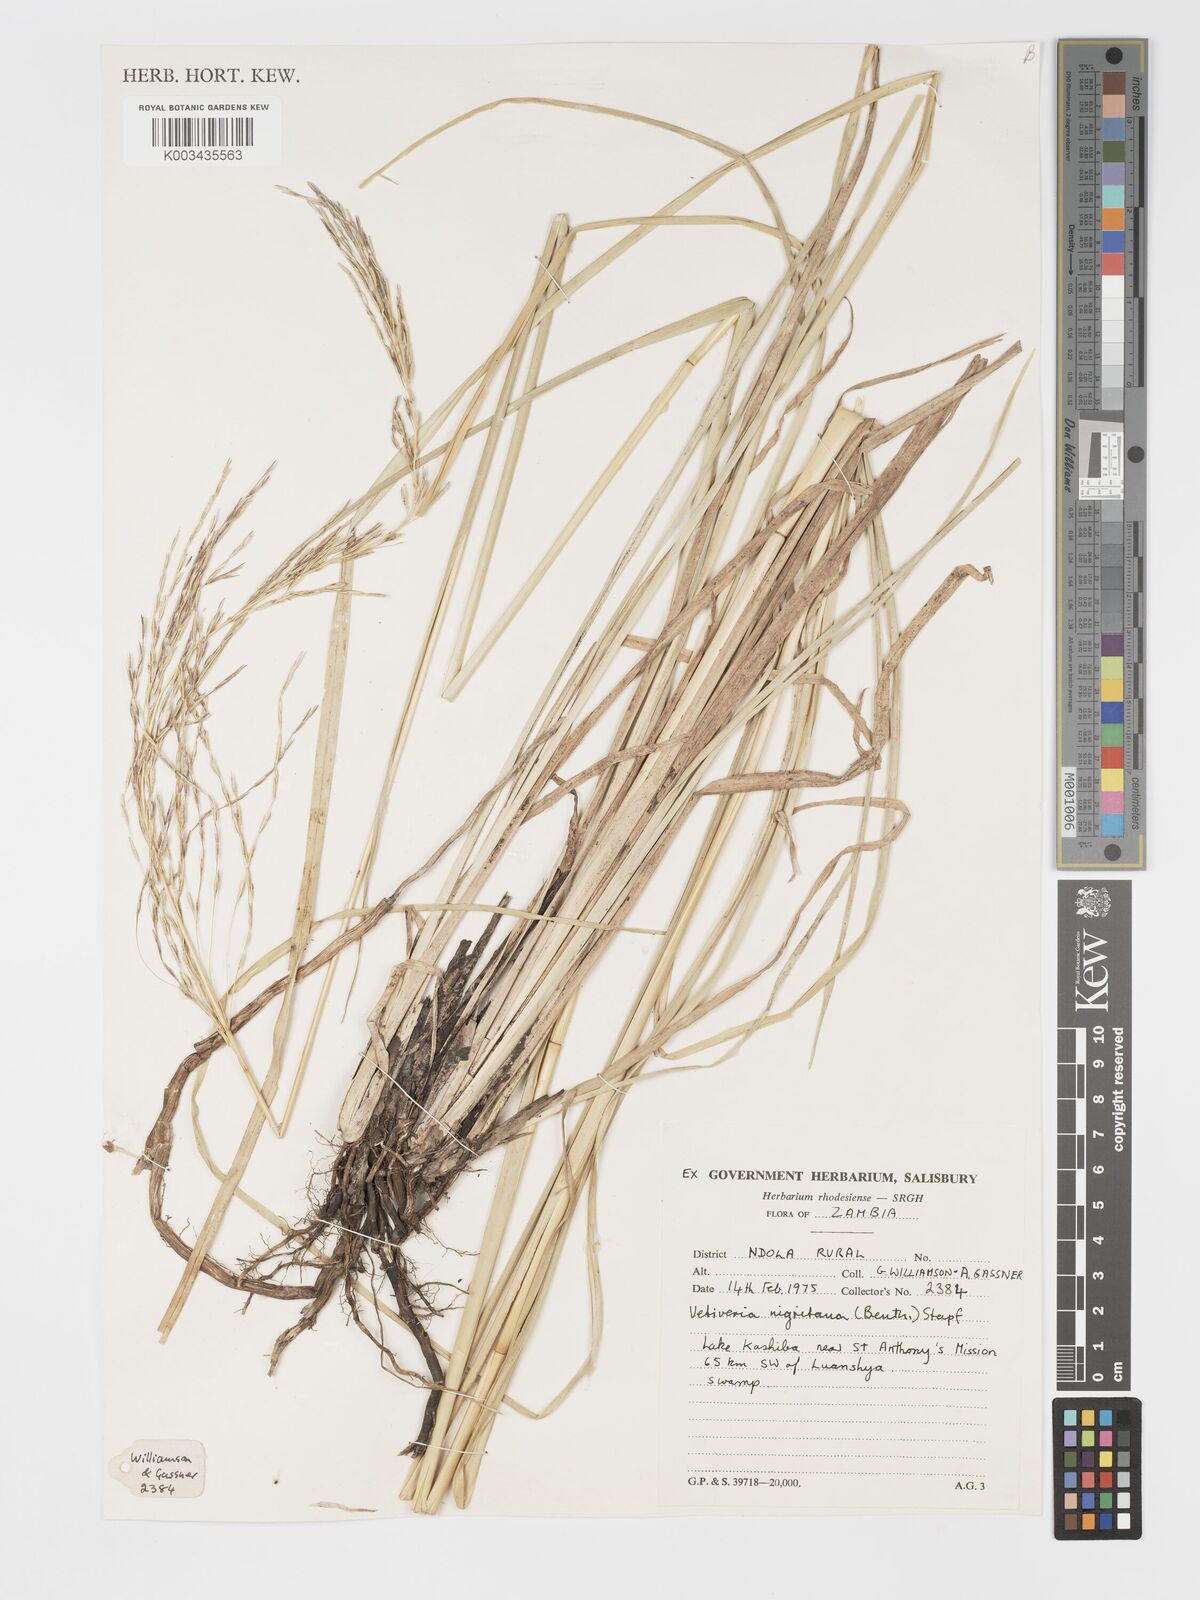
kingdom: Plantae
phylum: Tracheophyta
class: Liliopsida
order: Poales
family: Poaceae
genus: Chrysopogon
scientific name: Chrysopogon nigritanus
